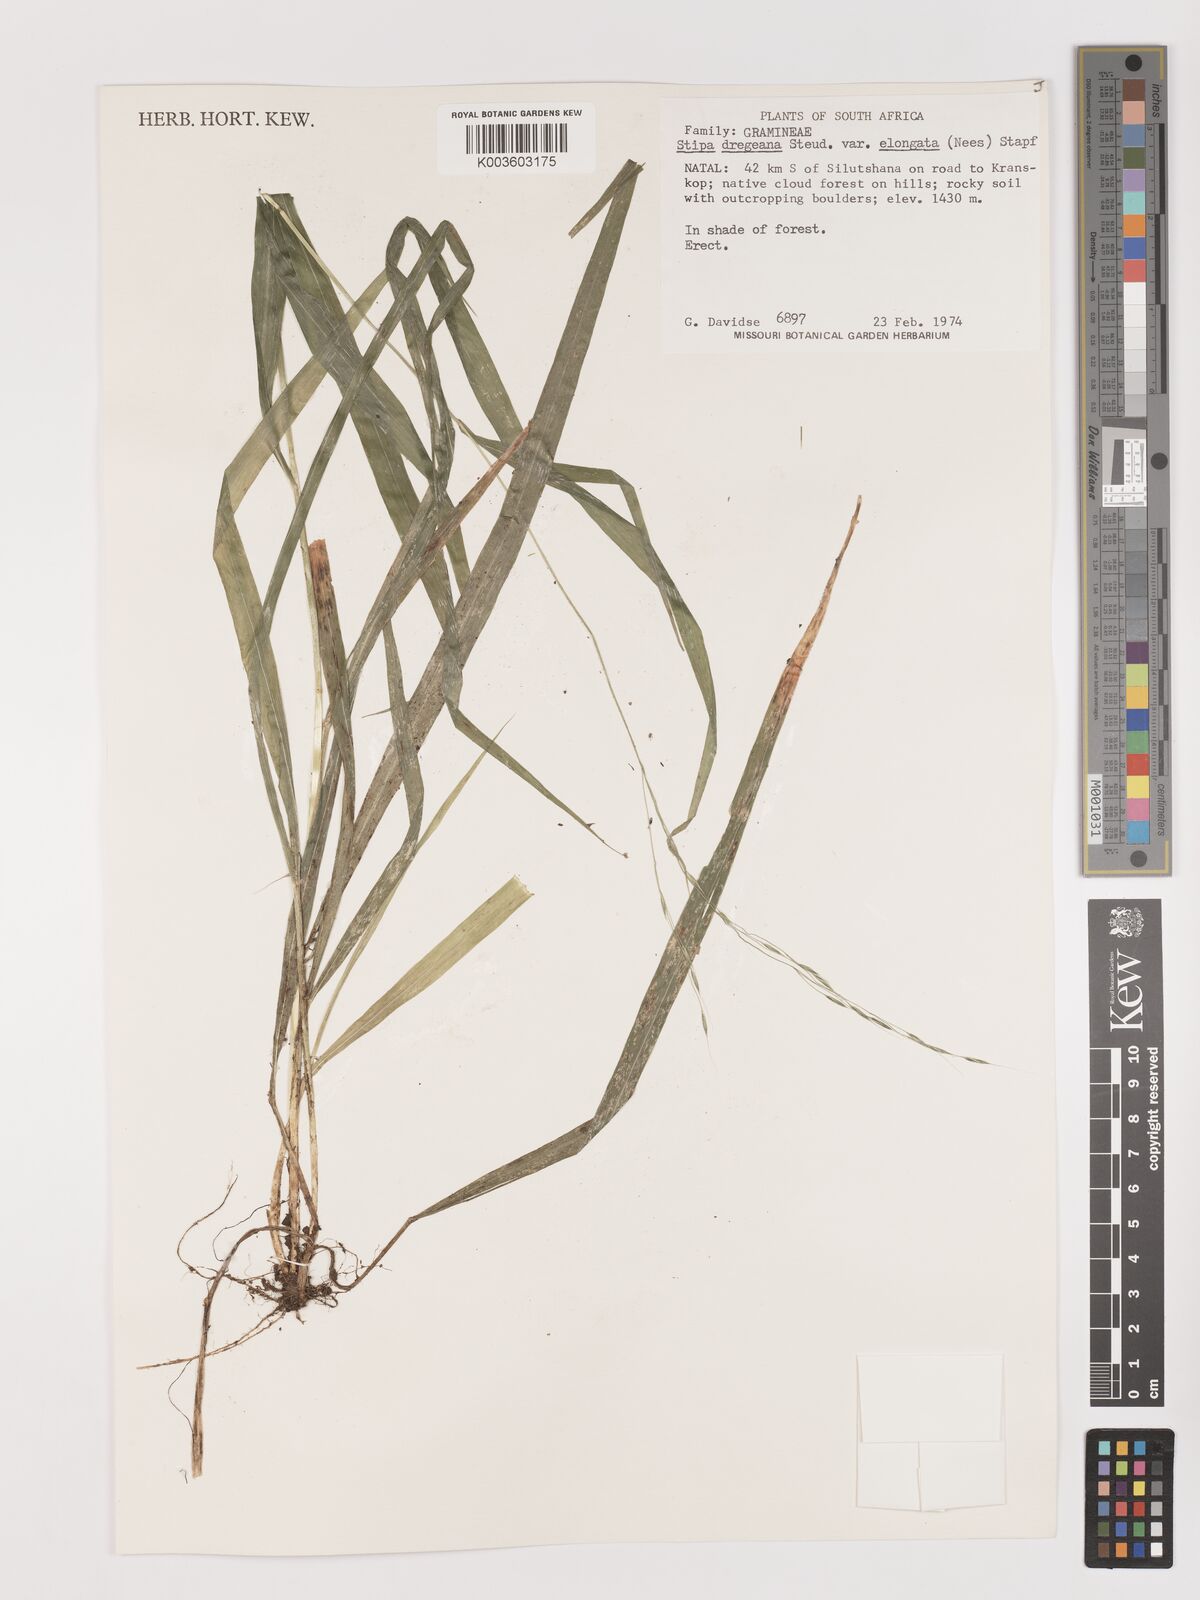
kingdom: Plantae
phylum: Tracheophyta
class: Liliopsida
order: Poales
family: Poaceae
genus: Stipa
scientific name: Stipa dregeana
